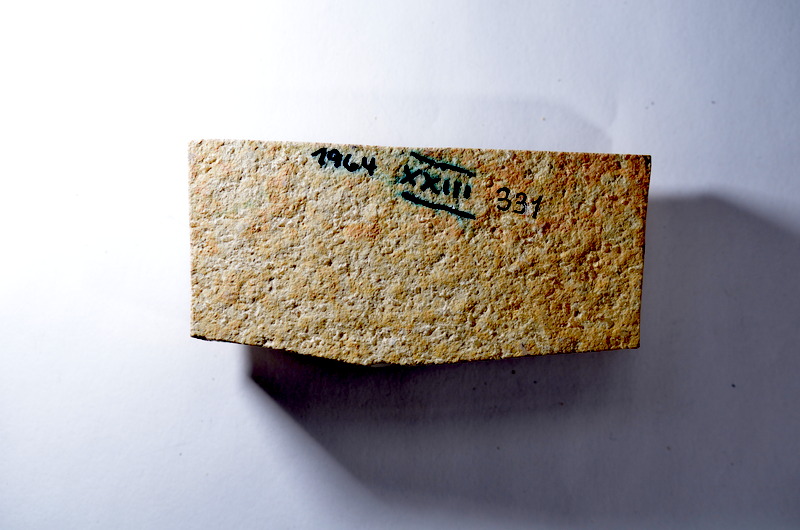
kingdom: Animalia
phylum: Chordata
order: Salmoniformes
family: Orthogonikleithridae
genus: Leptolepides
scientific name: Leptolepides
